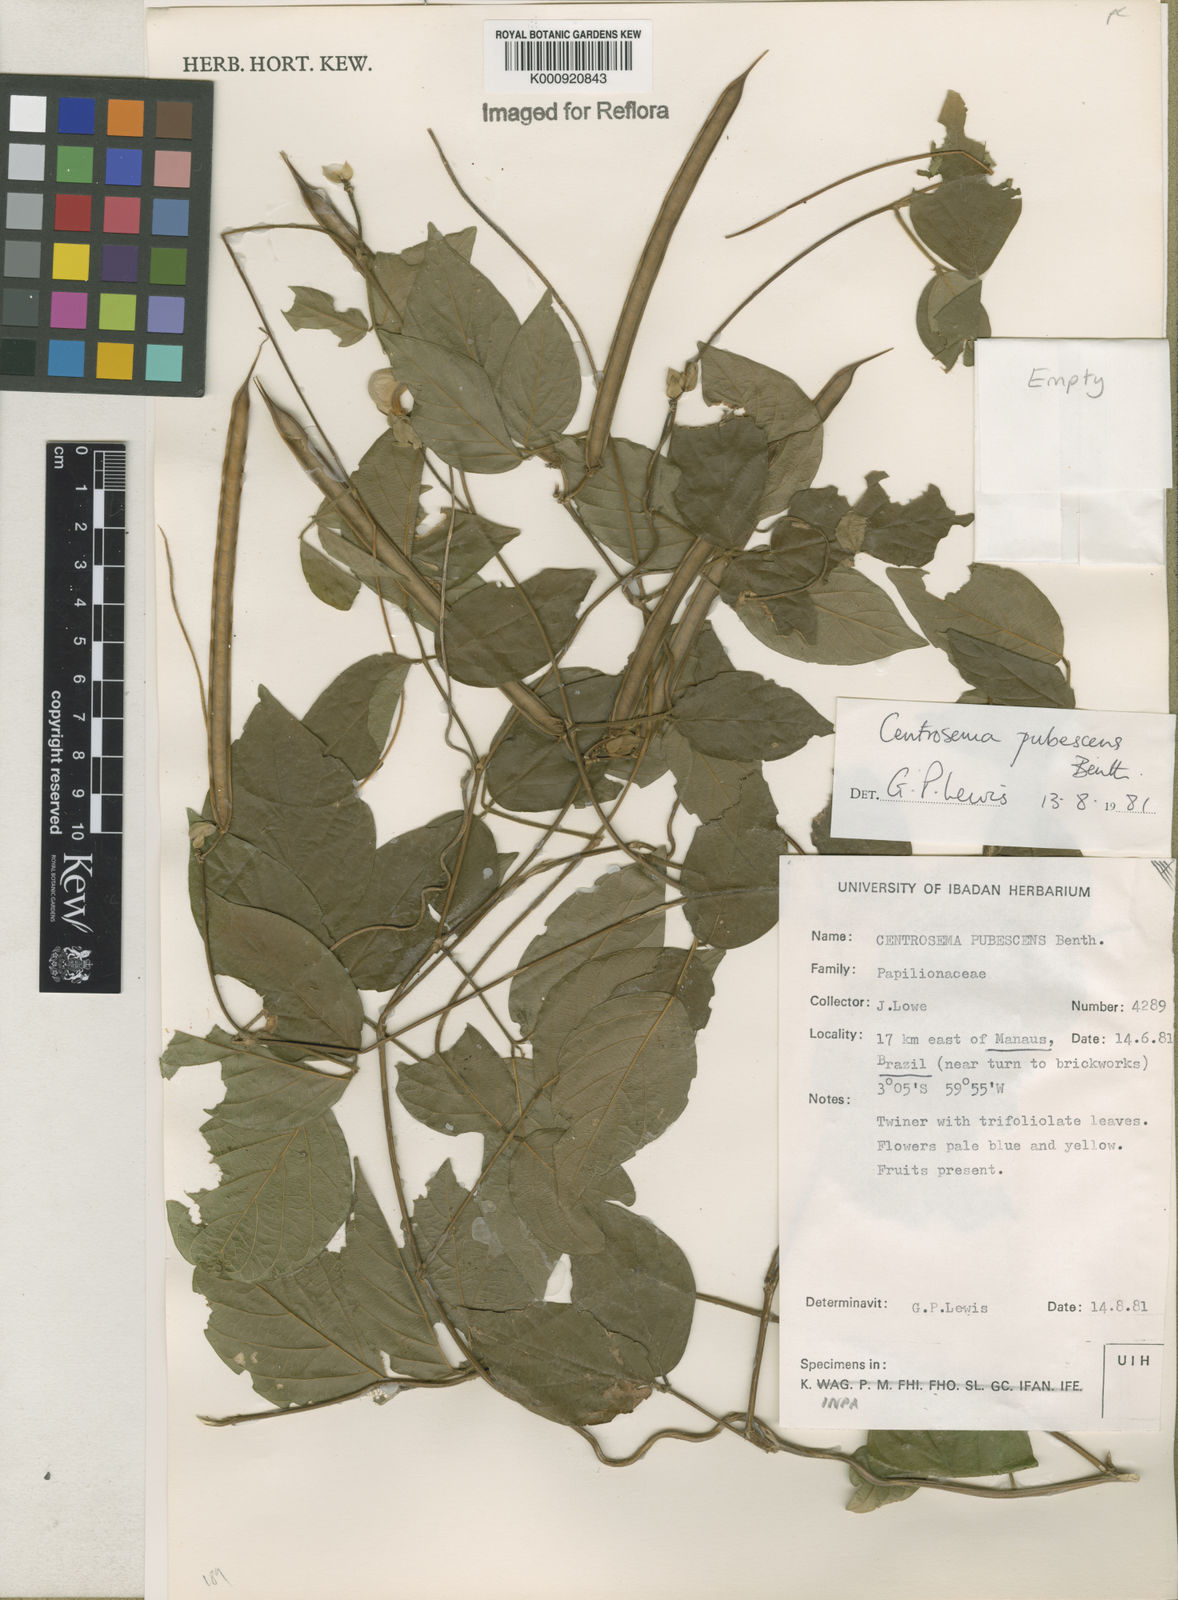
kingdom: Plantae
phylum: Tracheophyta
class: Magnoliopsida
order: Fabales
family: Fabaceae
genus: Centrosema
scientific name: Centrosema pubescens
